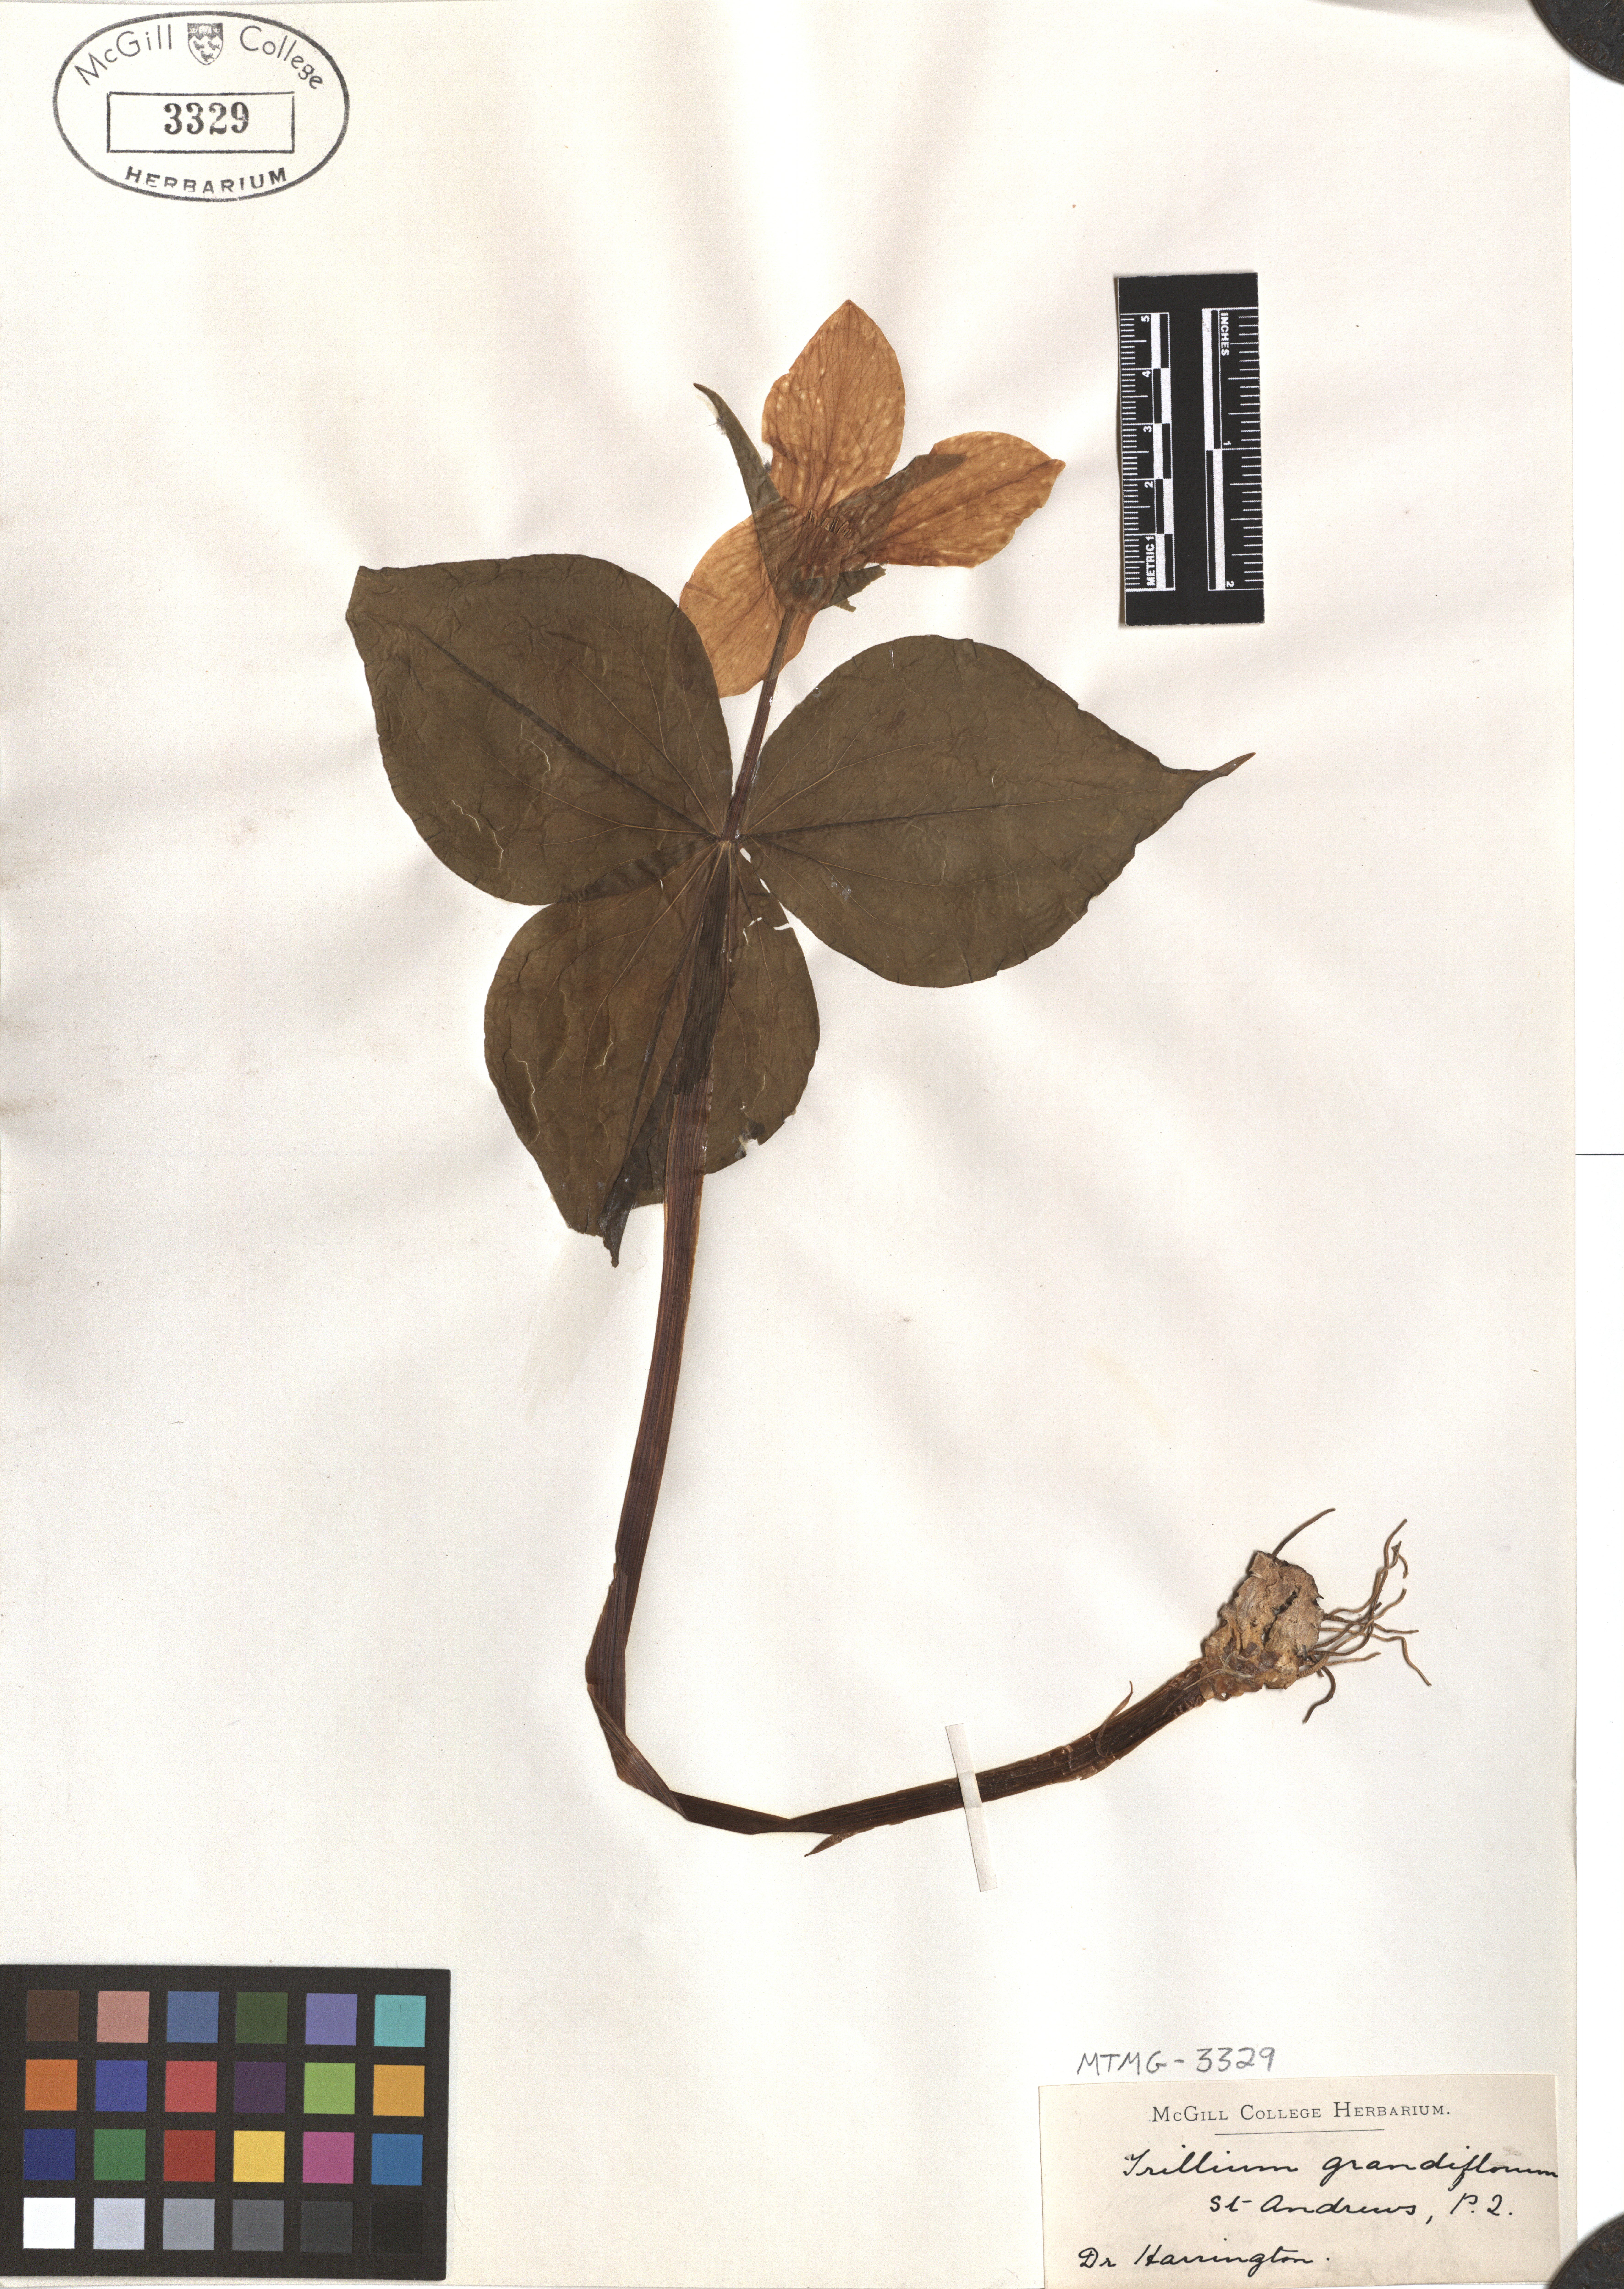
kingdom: Plantae
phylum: Tracheophyta
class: Liliopsida
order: Liliales
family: Melanthiaceae
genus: Trillium
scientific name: Trillium grandiflorum
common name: Great white trillium
